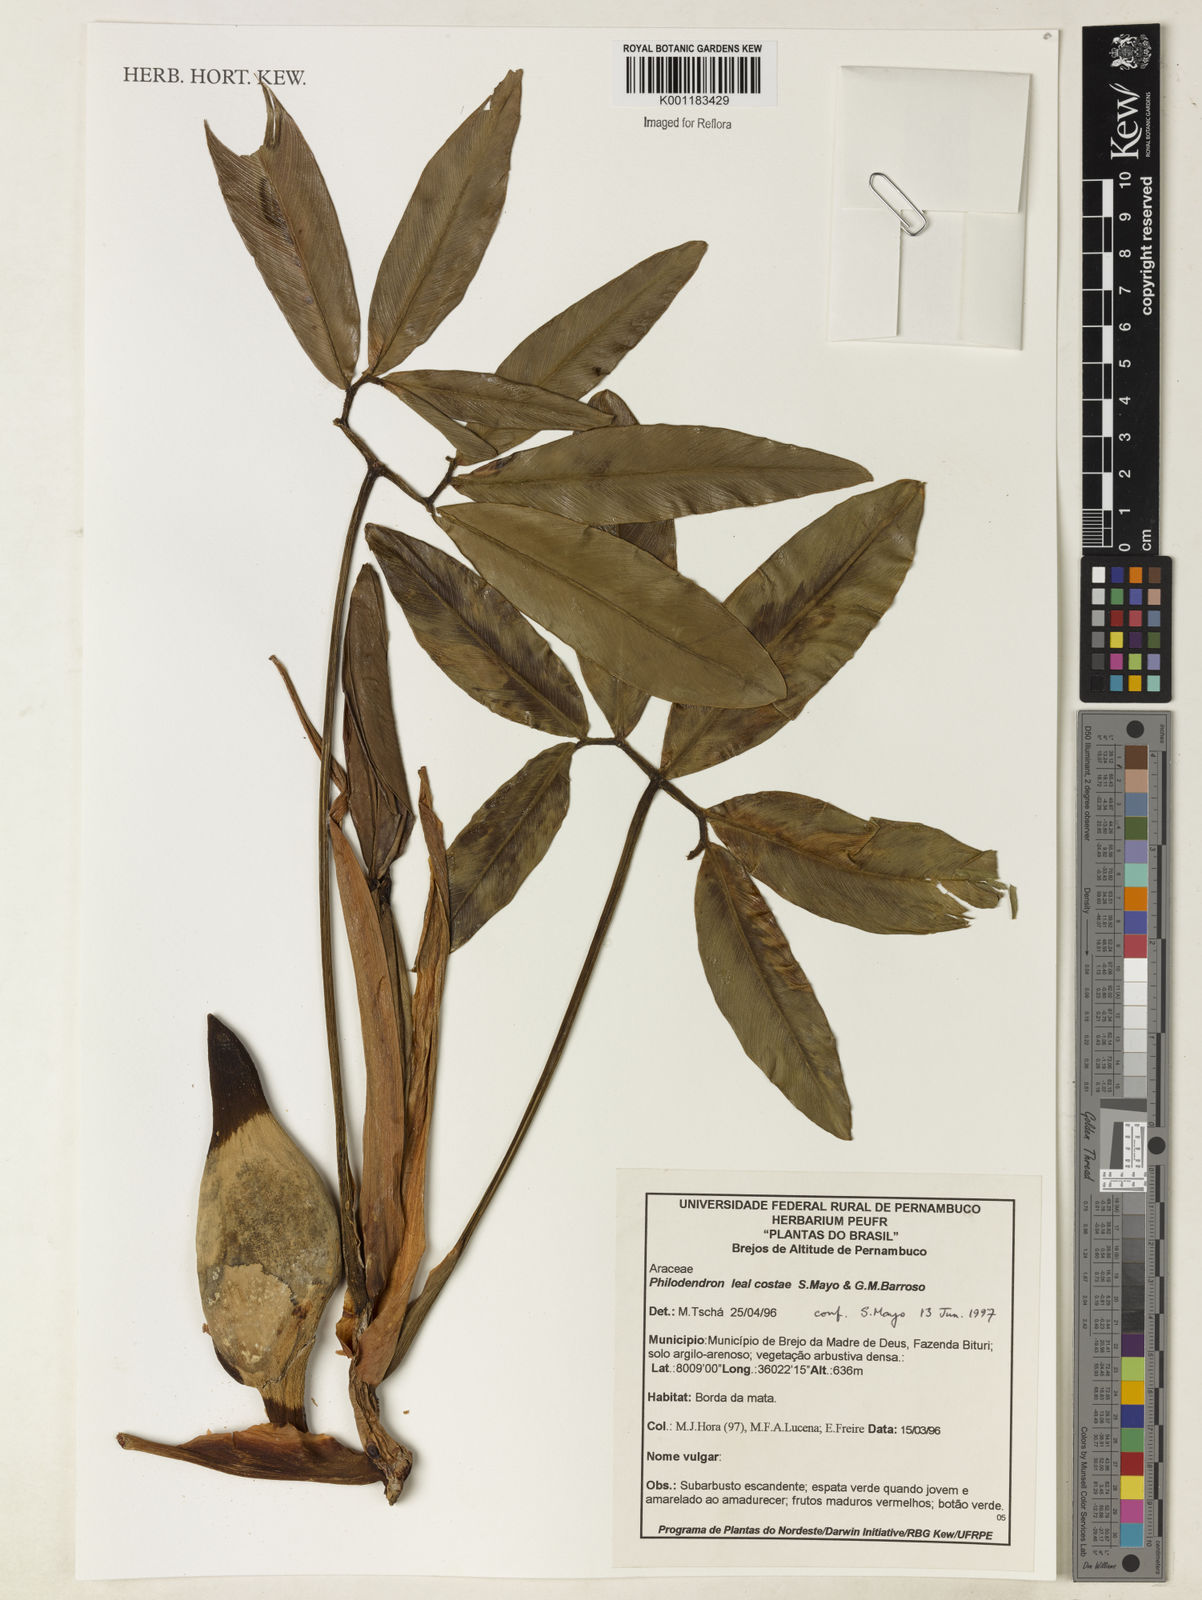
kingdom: Plantae
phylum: Tracheophyta
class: Liliopsida
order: Alismatales
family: Araceae
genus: Thaumatophyllum
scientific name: Thaumatophyllum leal-costae
